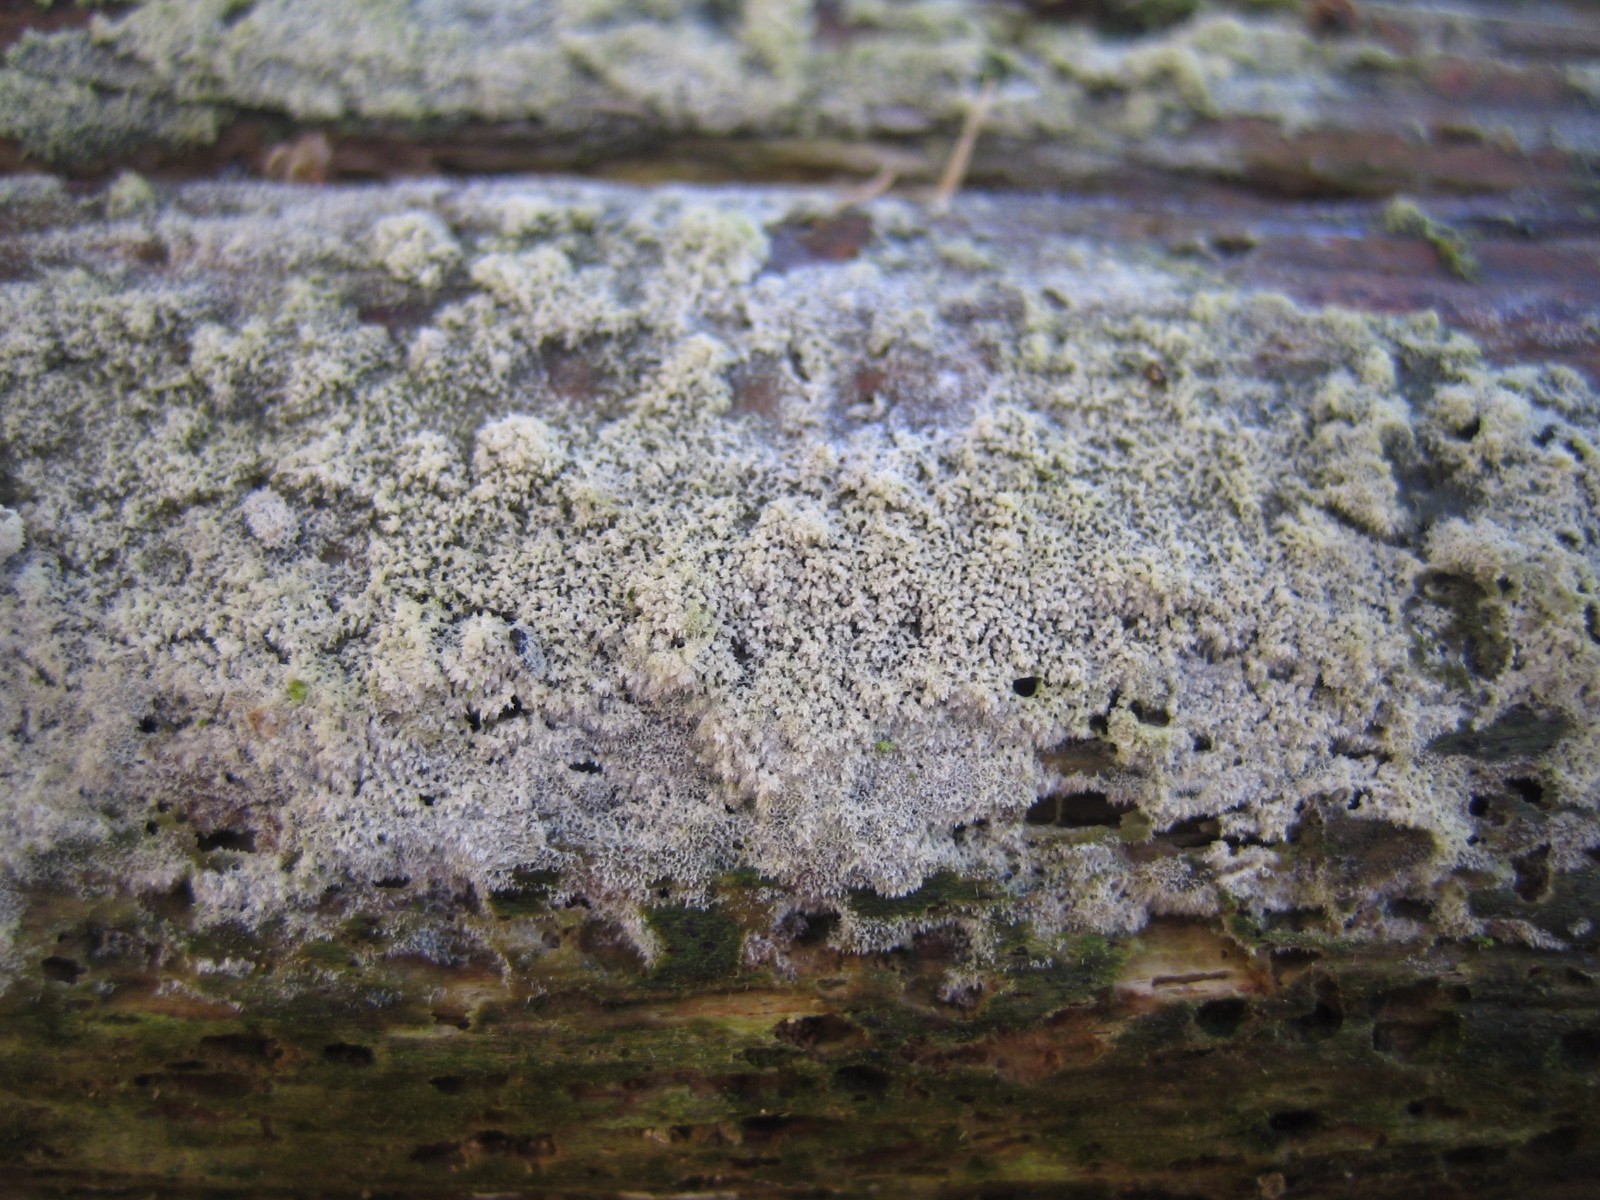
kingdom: Fungi
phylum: Basidiomycota
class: Agaricomycetes
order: Corticiales
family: Corticiaceae
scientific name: Corticiaceae
